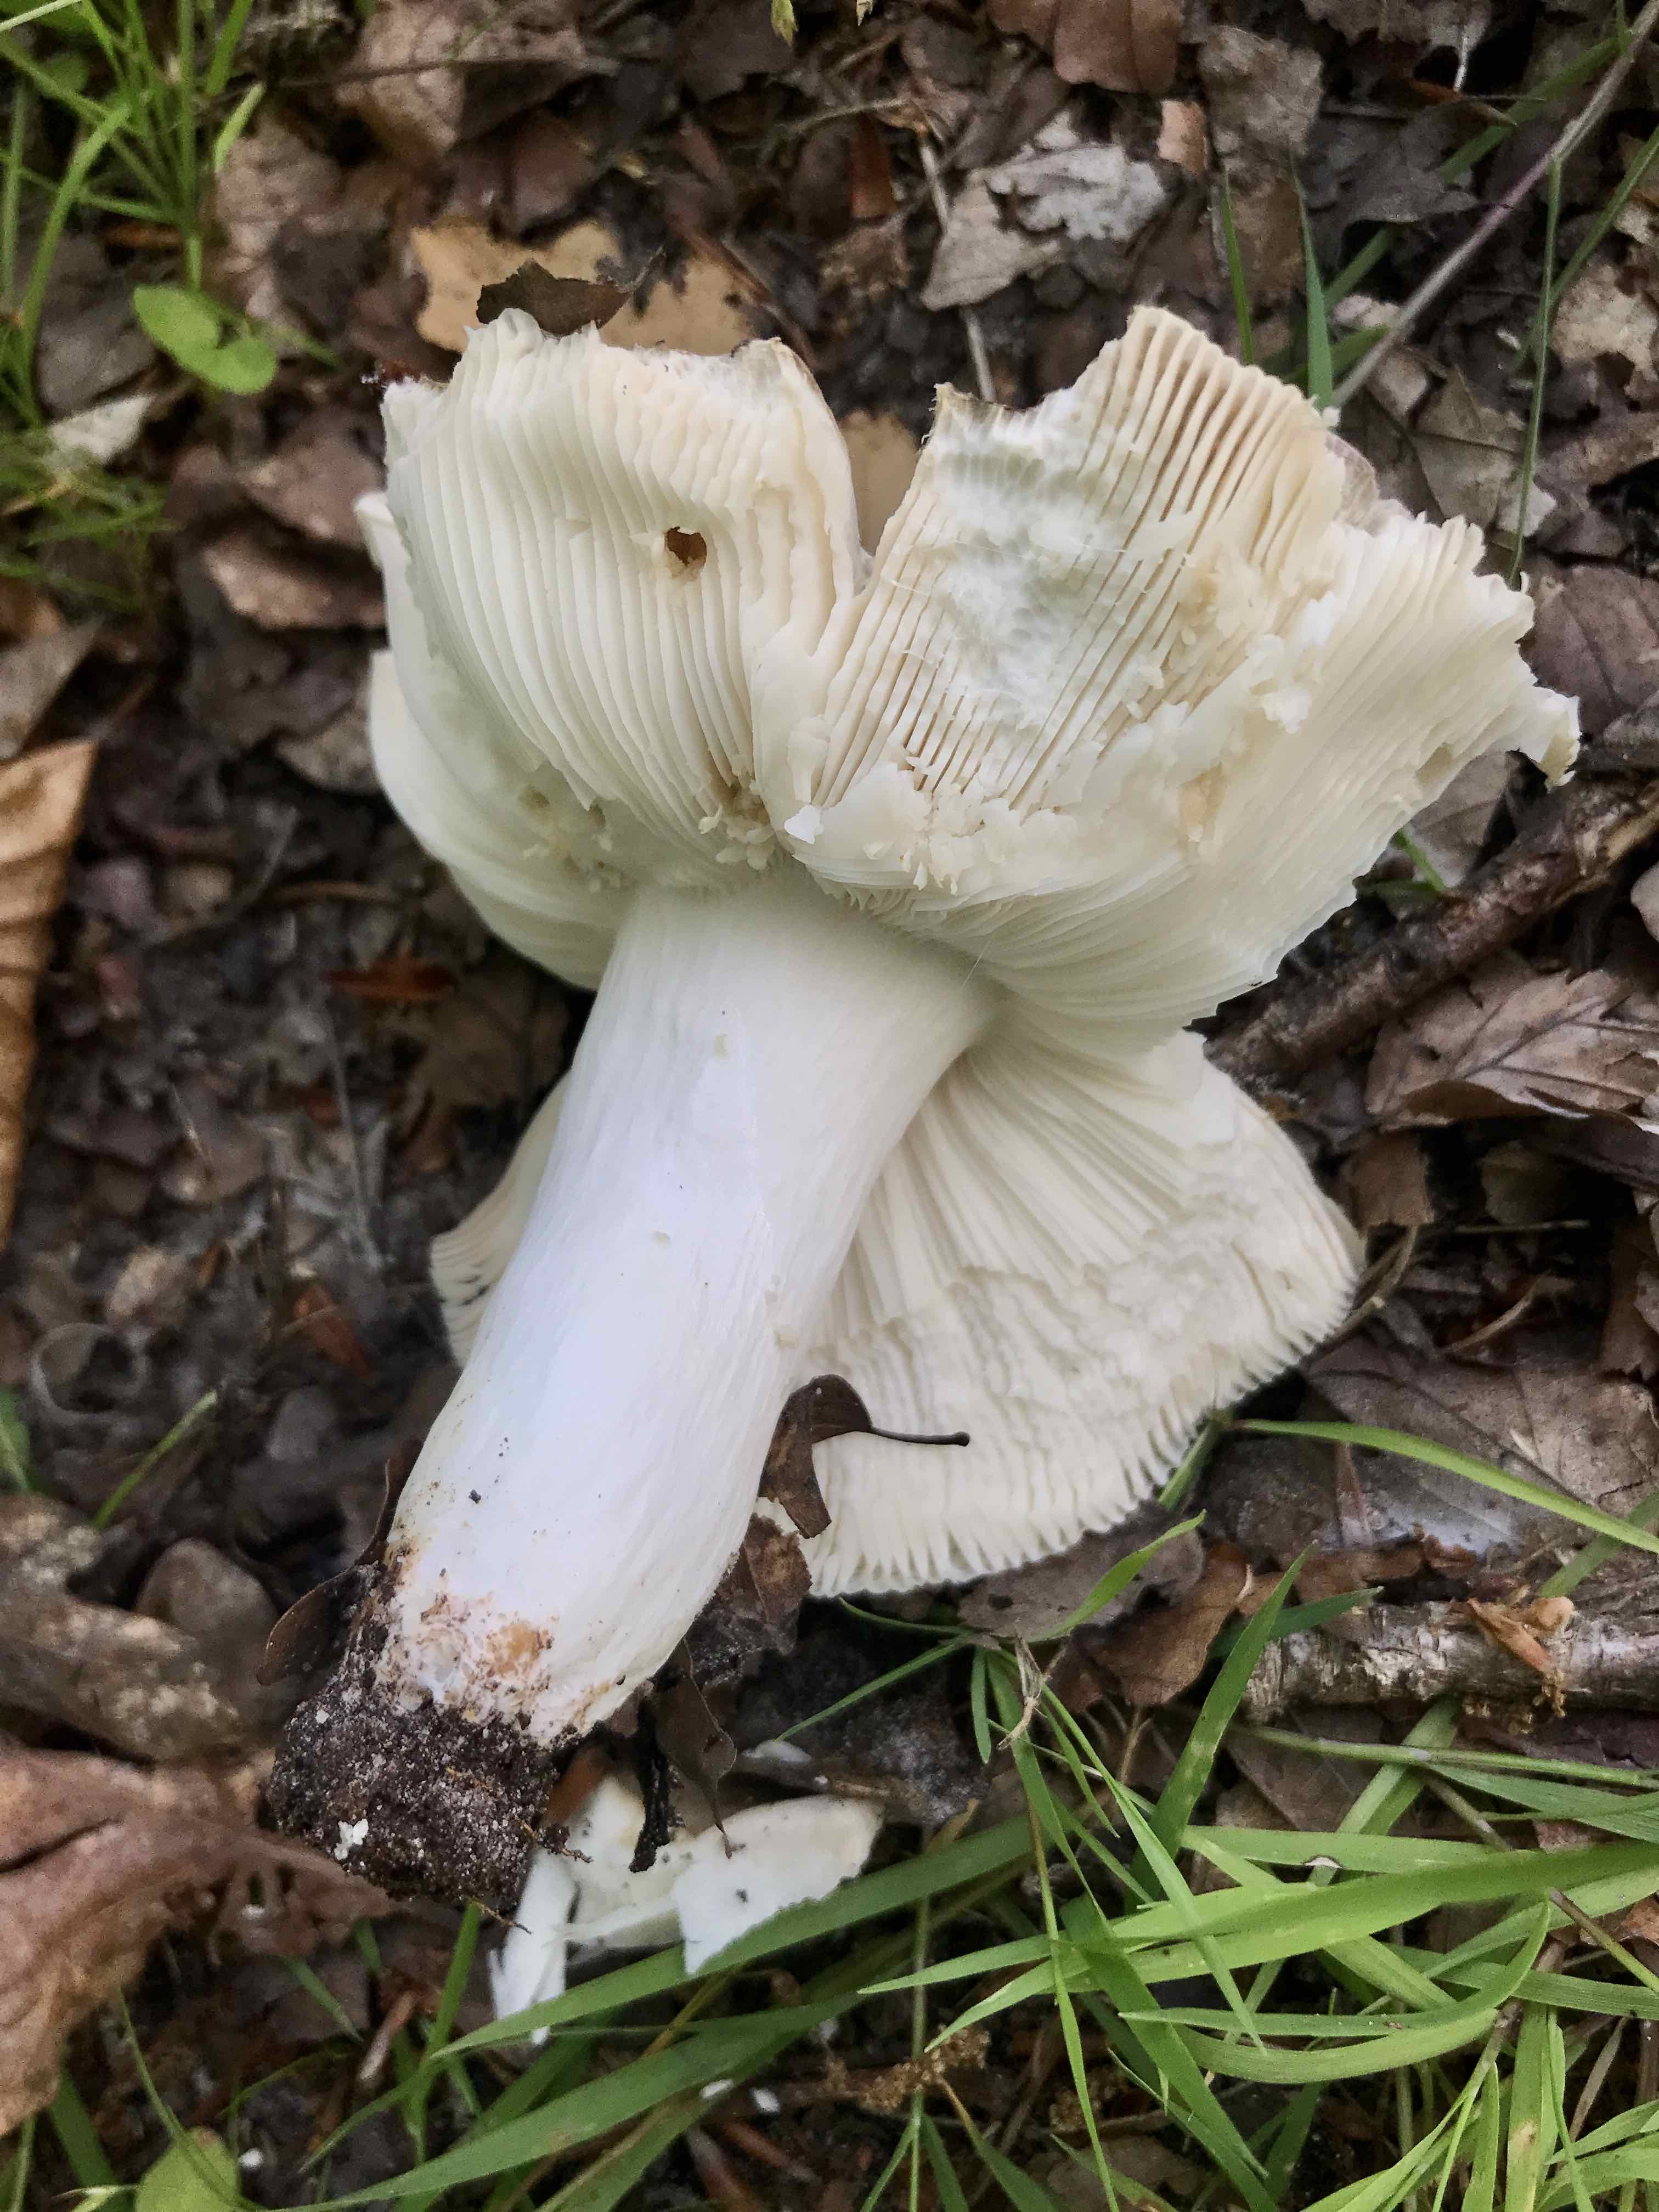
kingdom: Fungi
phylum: Basidiomycota
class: Agaricomycetes
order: Russulales
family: Russulaceae
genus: Russula
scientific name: Russula cyanoxantha
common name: broget skørhat
